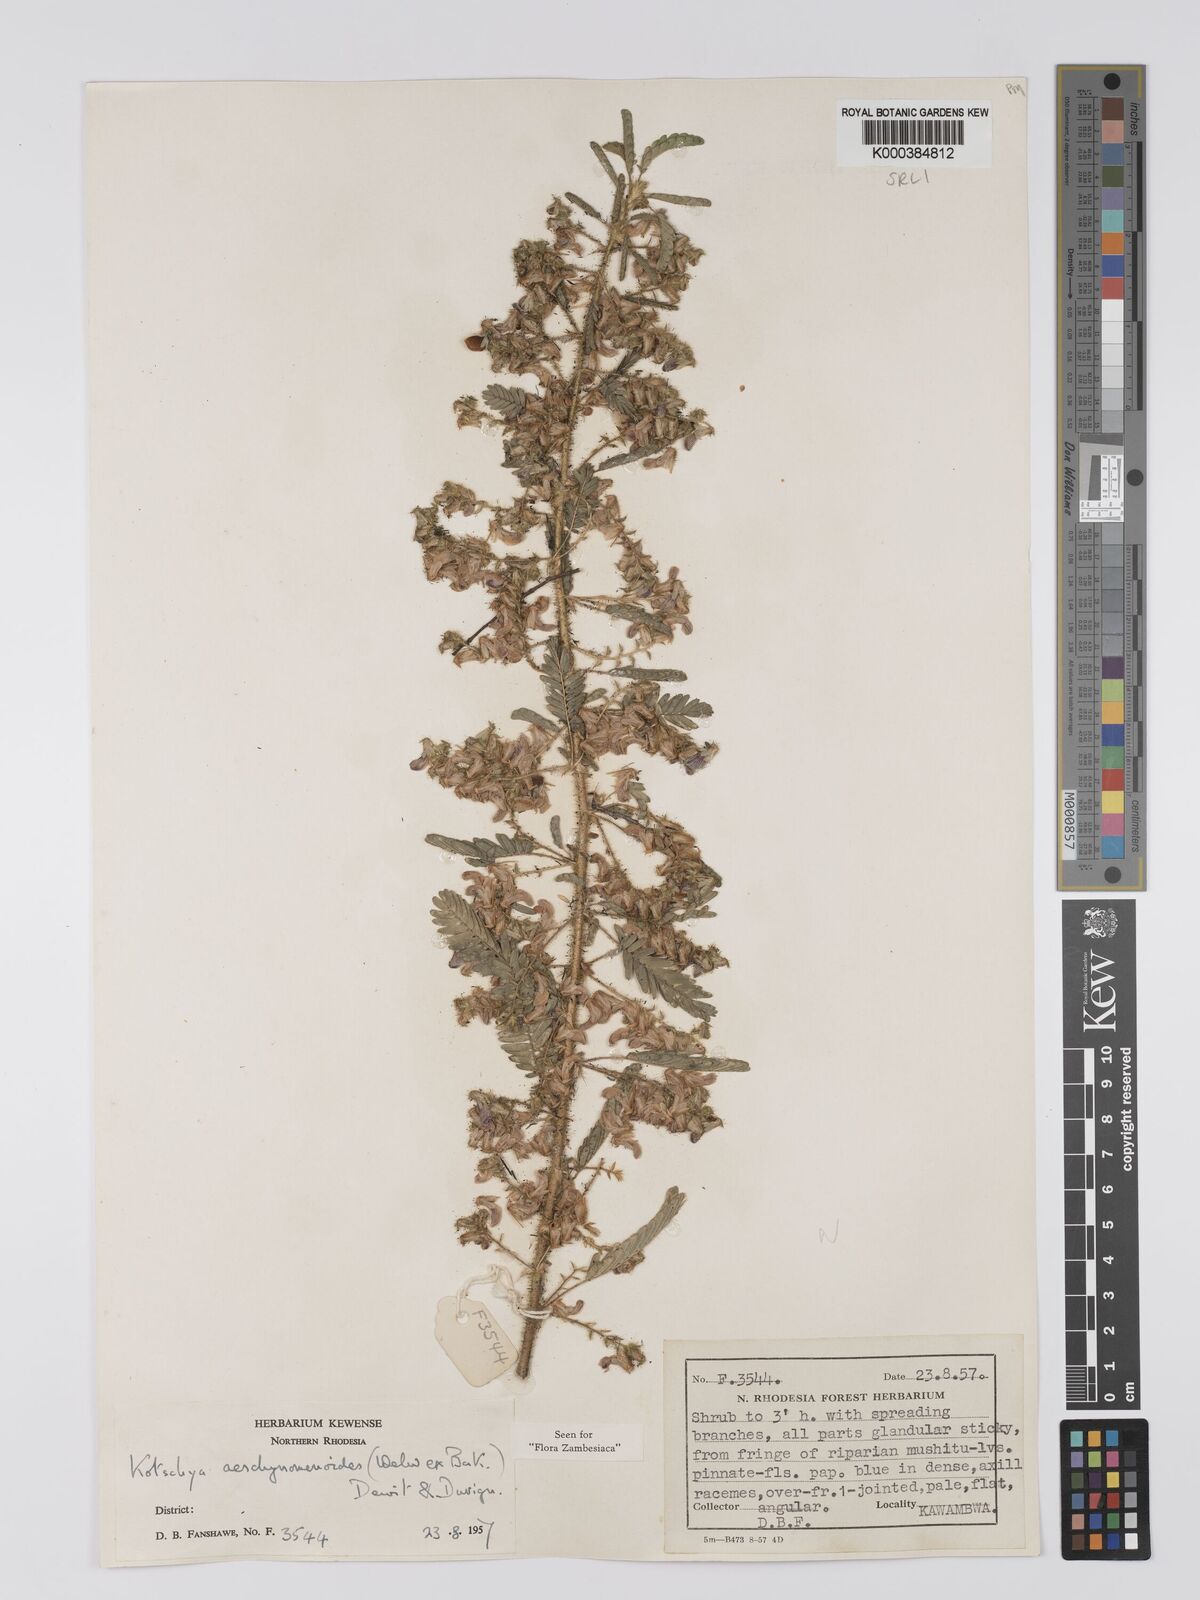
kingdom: Plantae
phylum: Tracheophyta
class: Magnoliopsida
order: Fabales
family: Fabaceae
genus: Kotschya
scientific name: Kotschya aeschynomenoides
